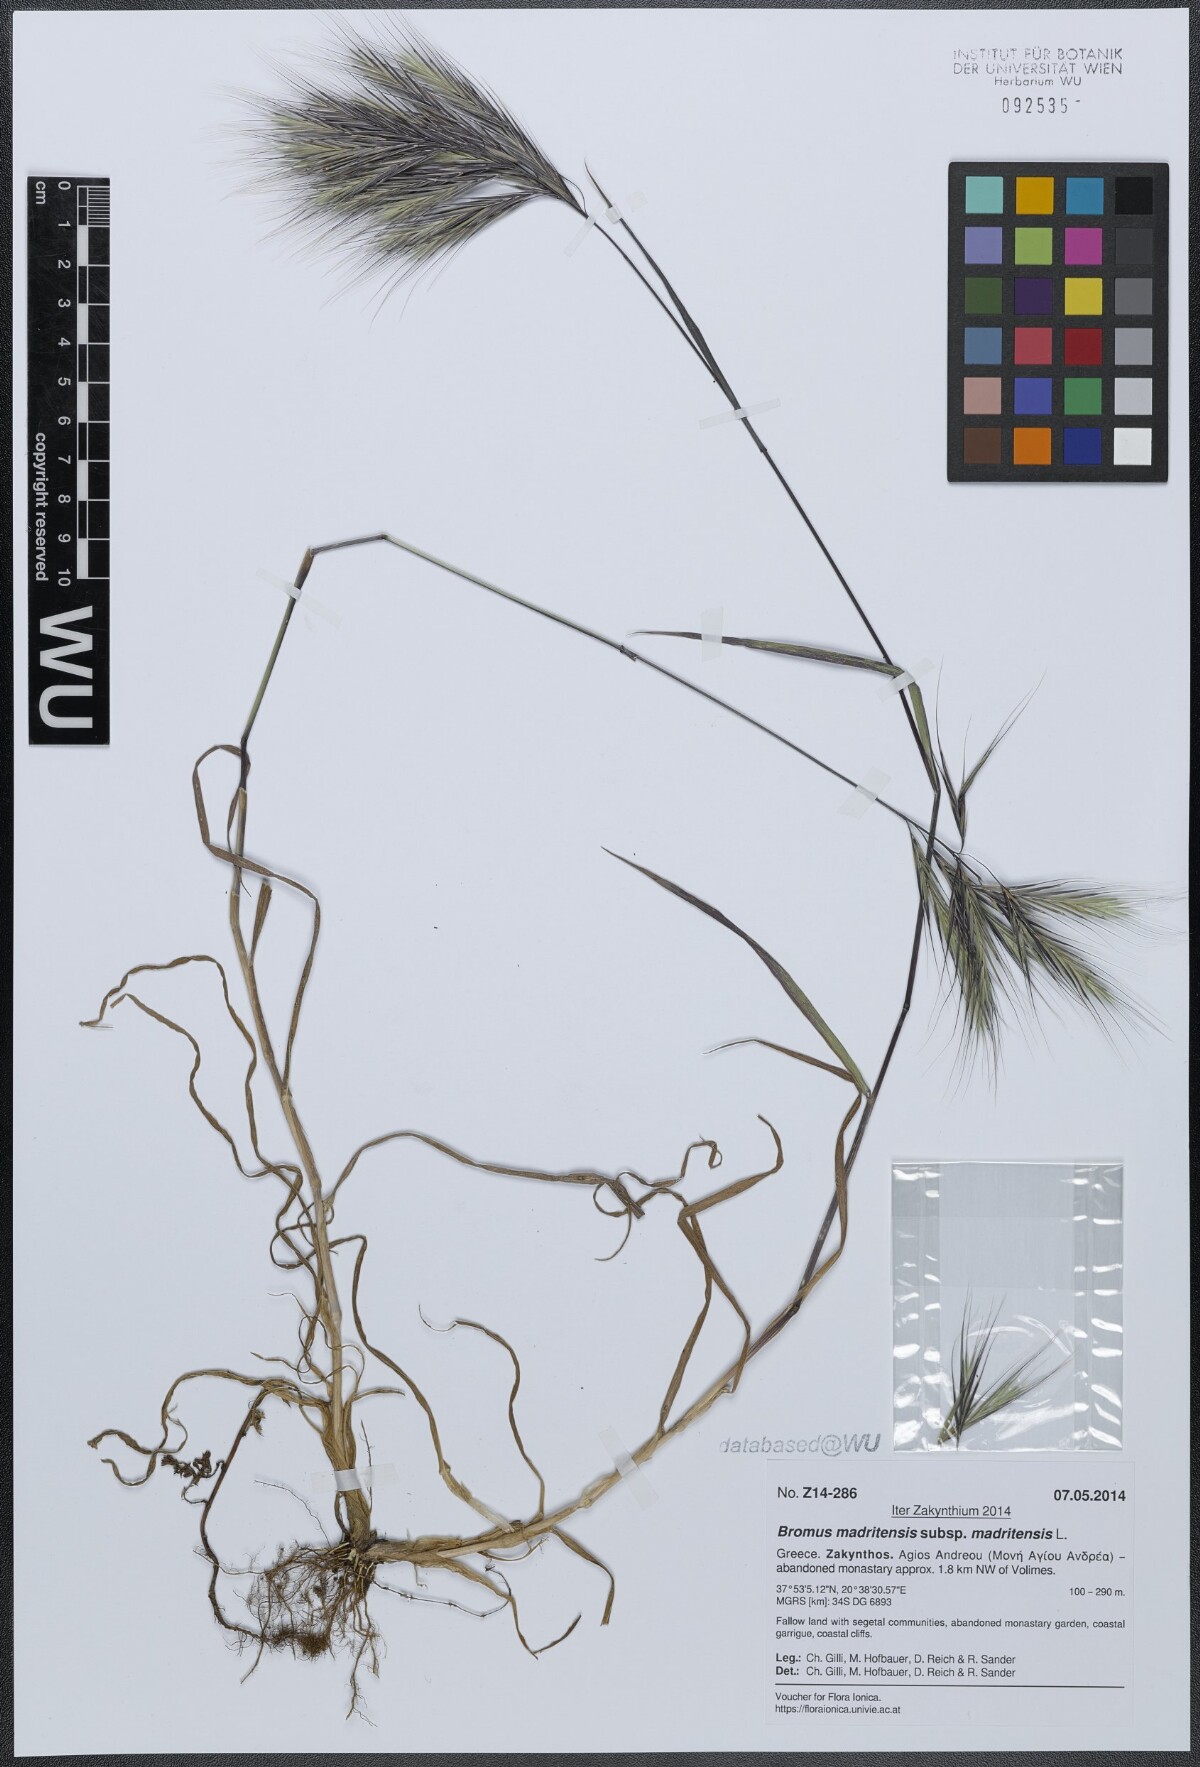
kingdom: Plantae
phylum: Tracheophyta
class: Liliopsida
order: Poales
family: Poaceae
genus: Bromus
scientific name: Bromus madritensis
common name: Compact brome
